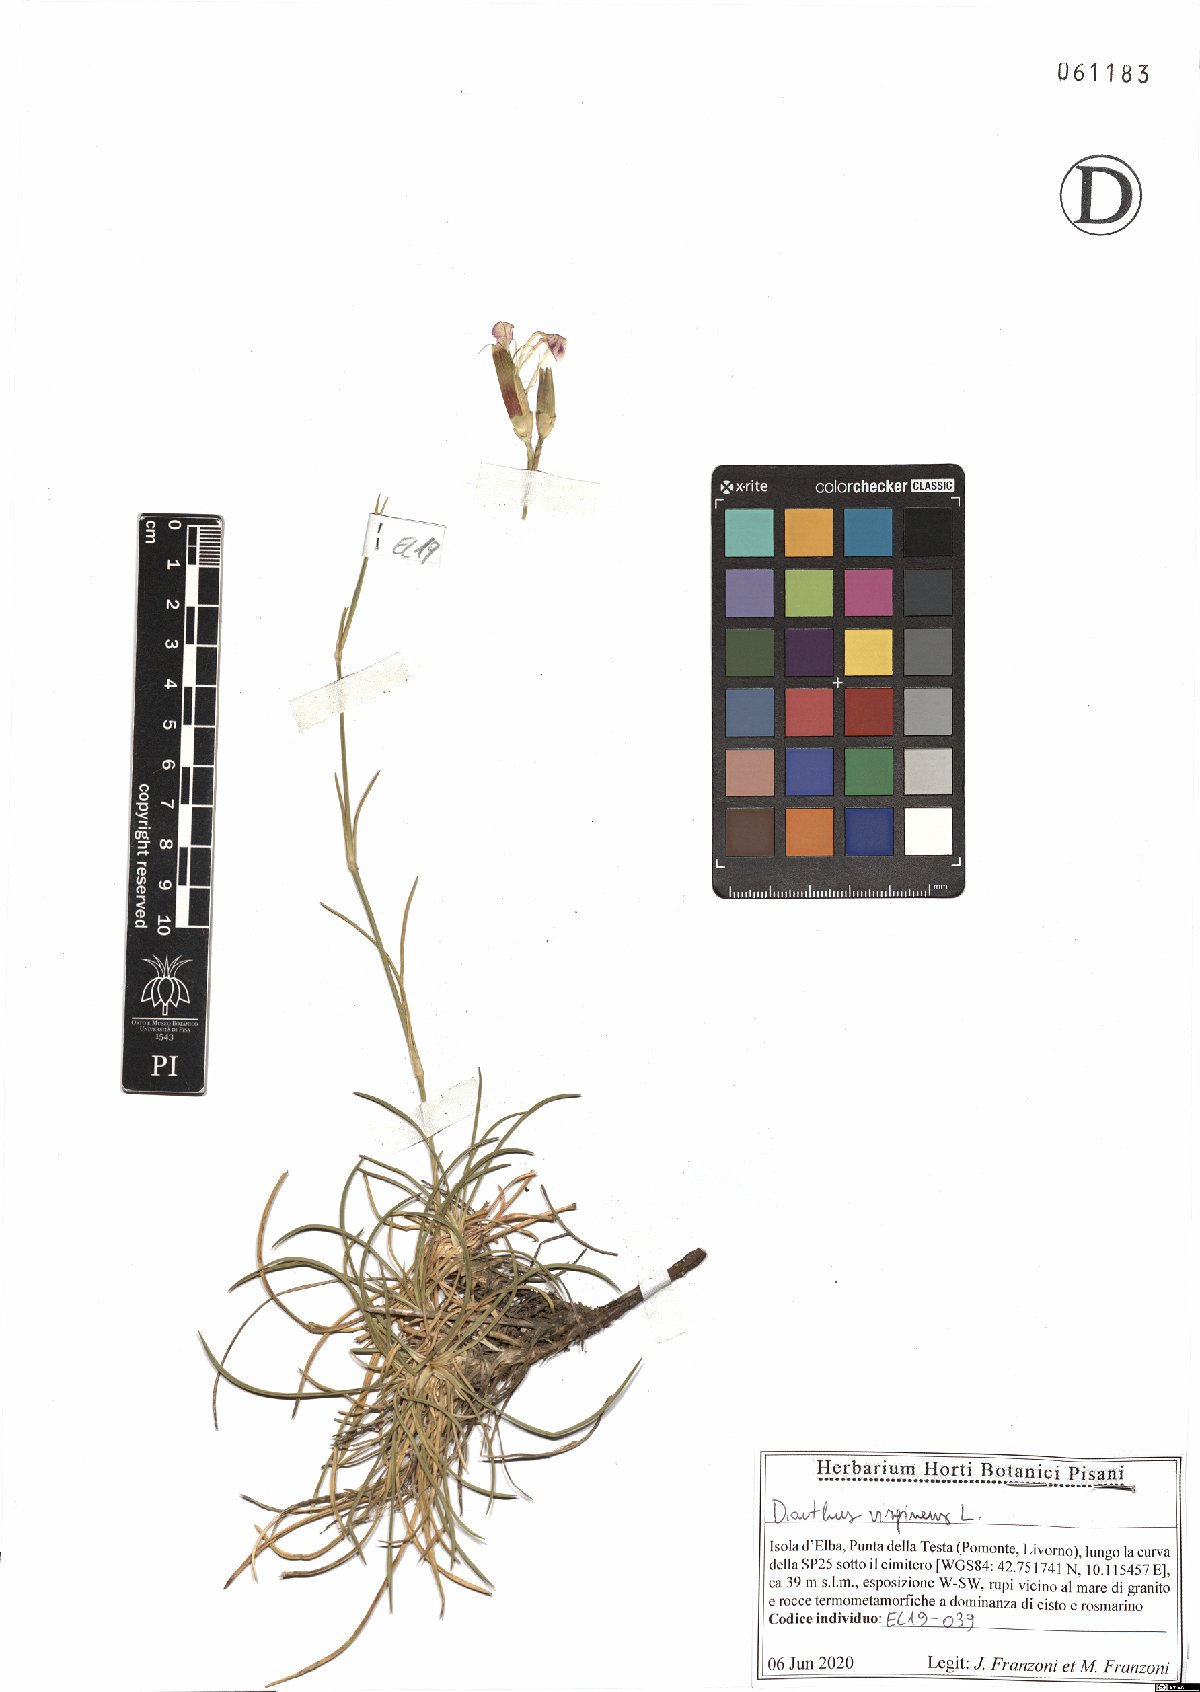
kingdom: Plantae
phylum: Tracheophyta
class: Magnoliopsida
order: Caryophyllales
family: Caryophyllaceae
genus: Dianthus
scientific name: Dianthus virgineus
